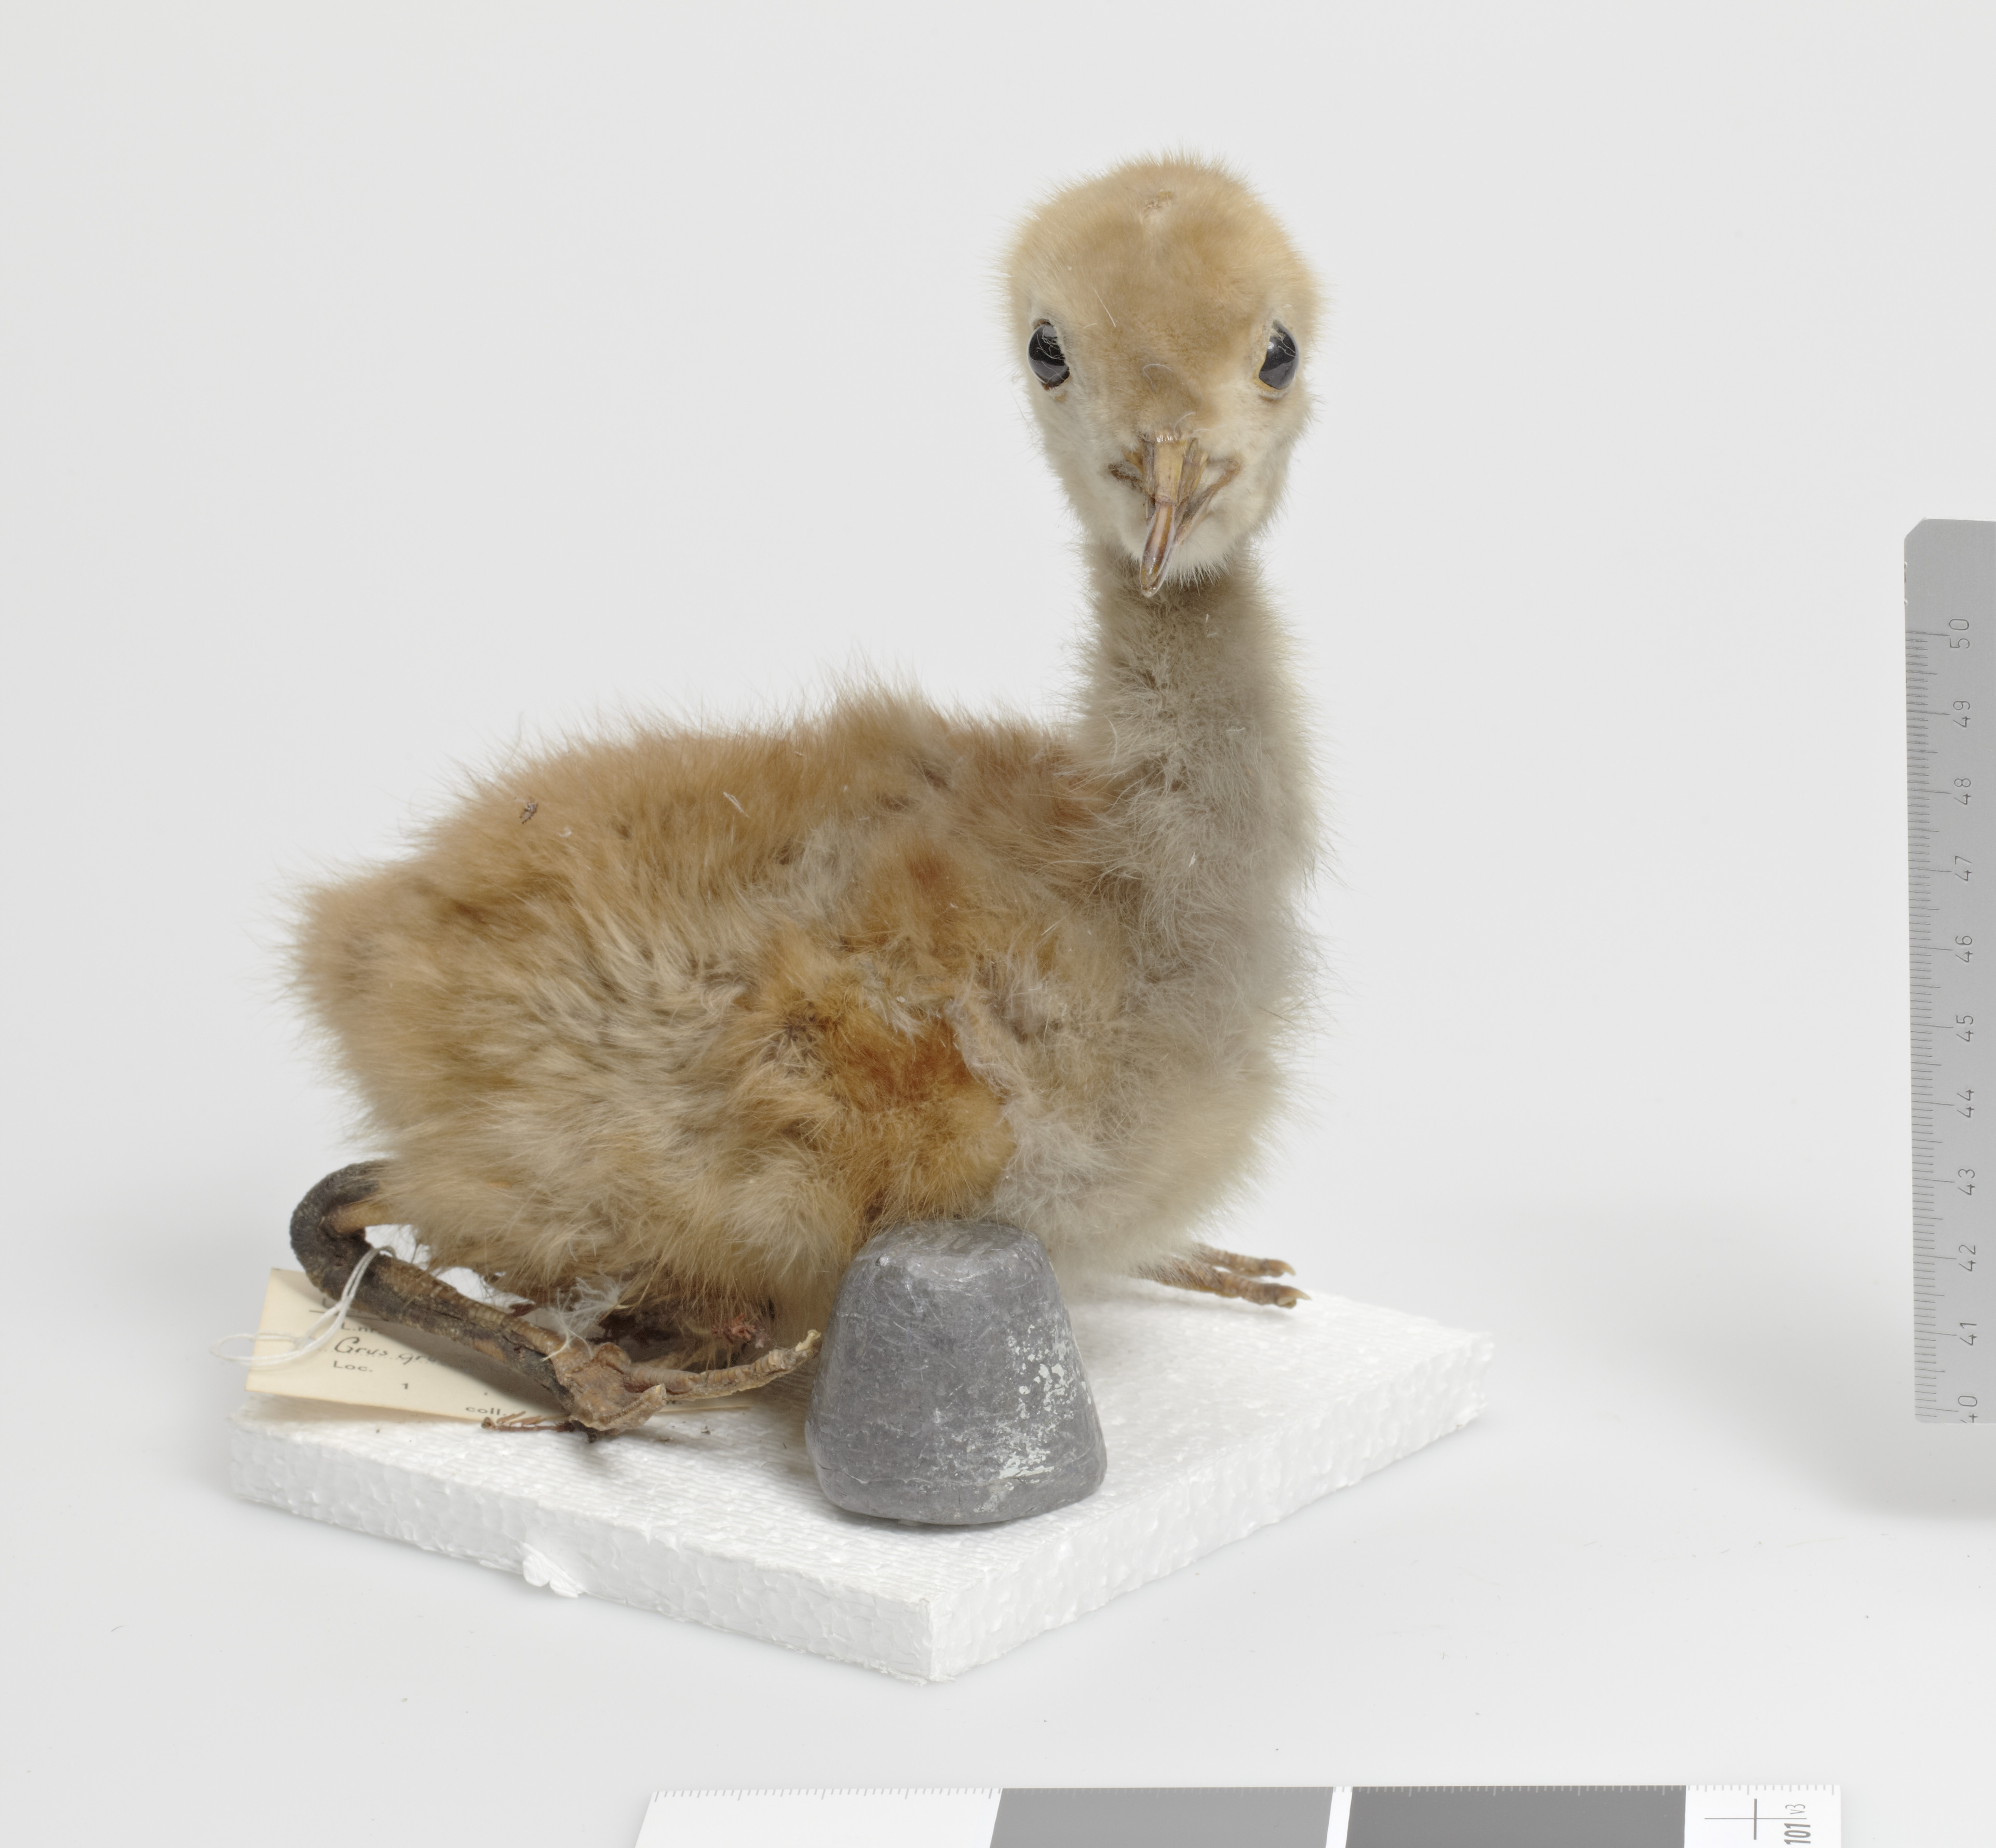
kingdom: Animalia
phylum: Chordata
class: Aves
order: Gruiformes
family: Gruidae
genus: Grus
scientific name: Grus grus
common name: Common crane
